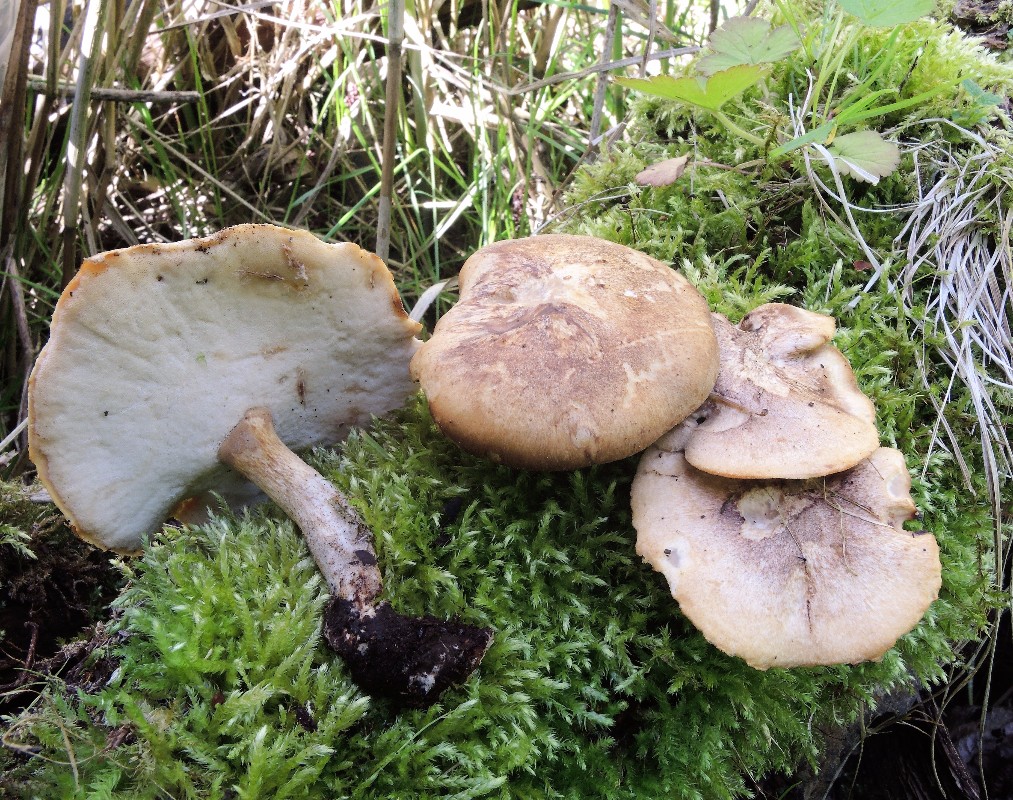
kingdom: Fungi
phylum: Basidiomycota
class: Agaricomycetes
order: Polyporales
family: Polyporaceae
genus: Lentinus
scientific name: Lentinus substrictus
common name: forårs-stilkporesvamp
